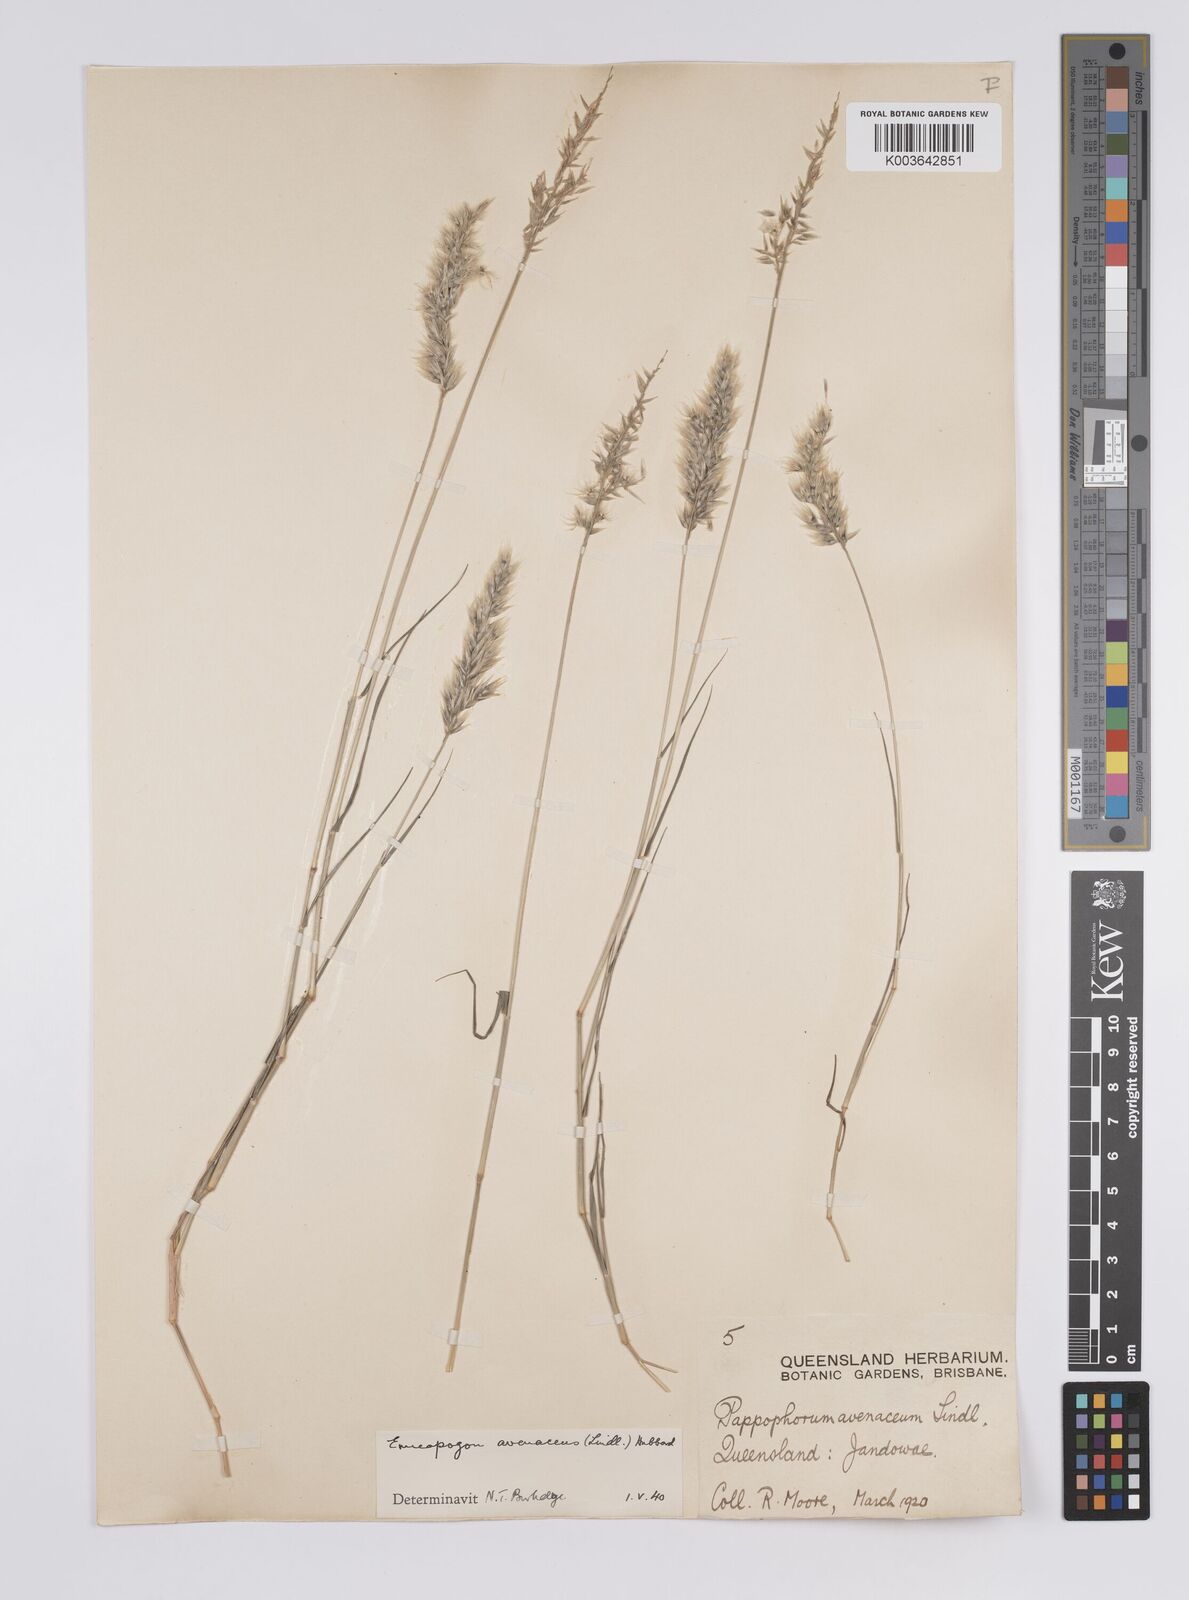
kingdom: Plantae
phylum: Tracheophyta
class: Liliopsida
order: Poales
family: Poaceae
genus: Enneapogon
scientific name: Enneapogon avenaceus
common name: Hairy oat grass
